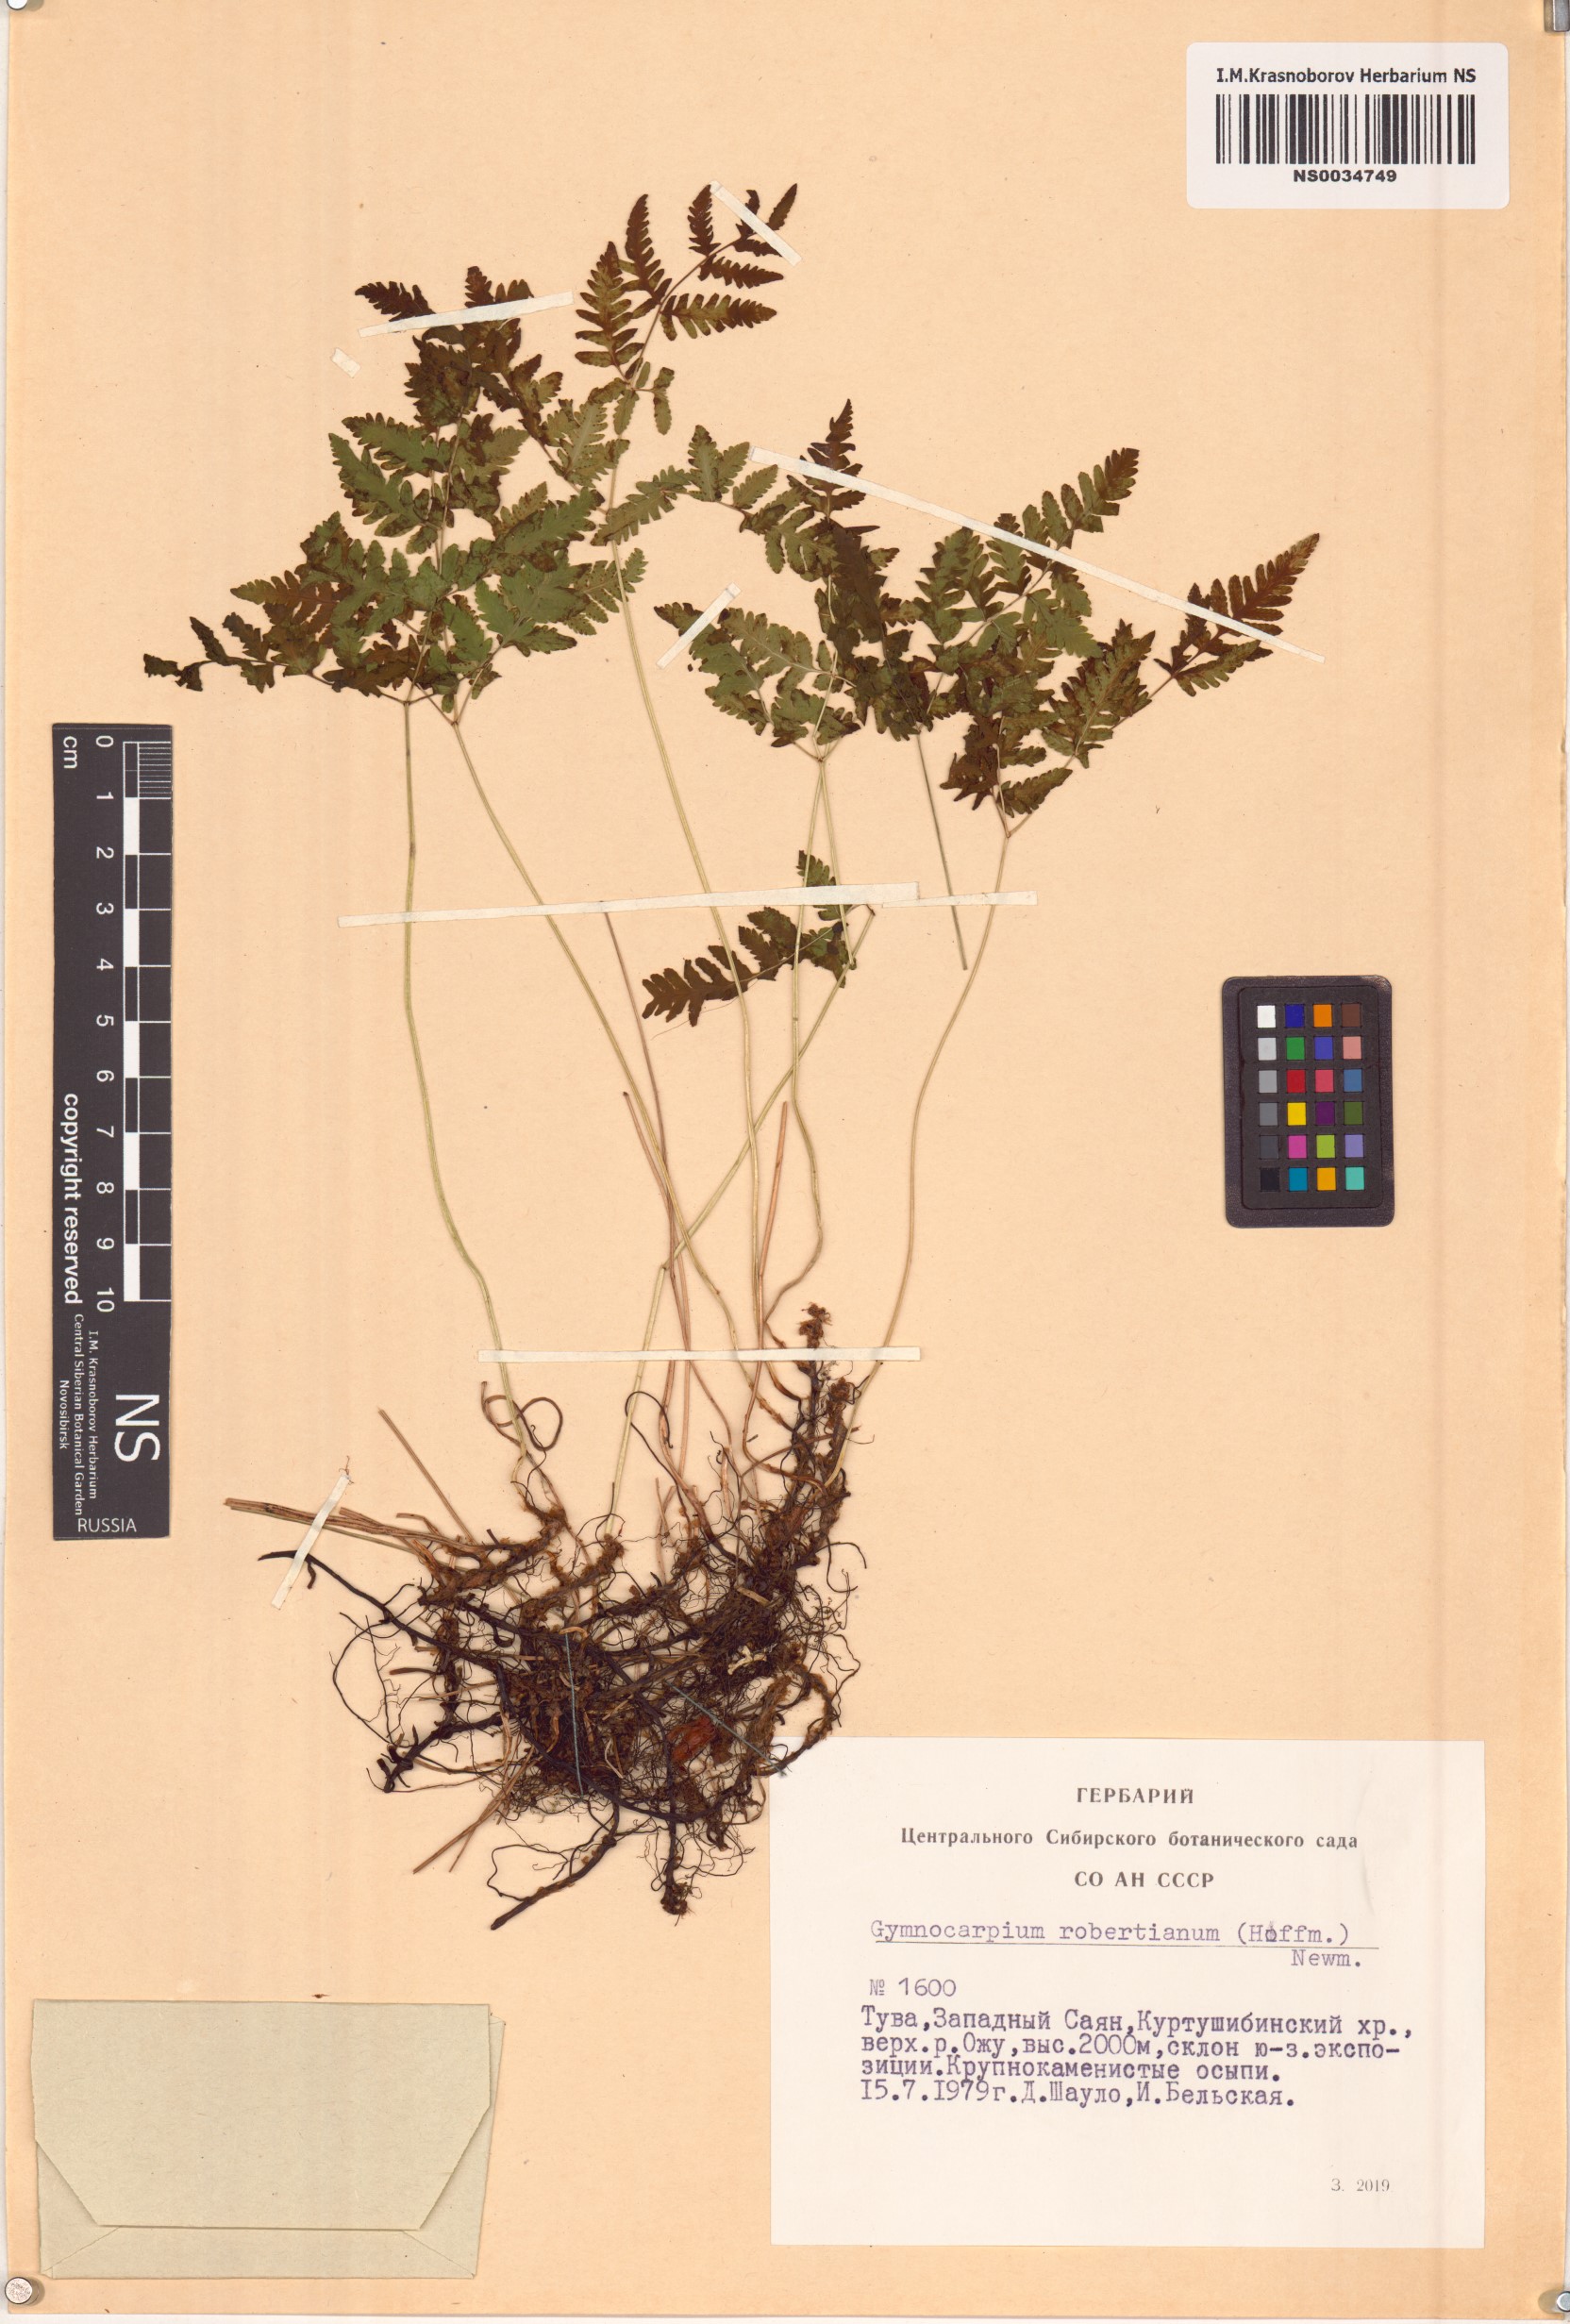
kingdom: Plantae
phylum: Tracheophyta
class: Polypodiopsida
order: Polypodiales
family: Cystopteridaceae
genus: Gymnocarpium
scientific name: Gymnocarpium robertianum
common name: Limestone fern
